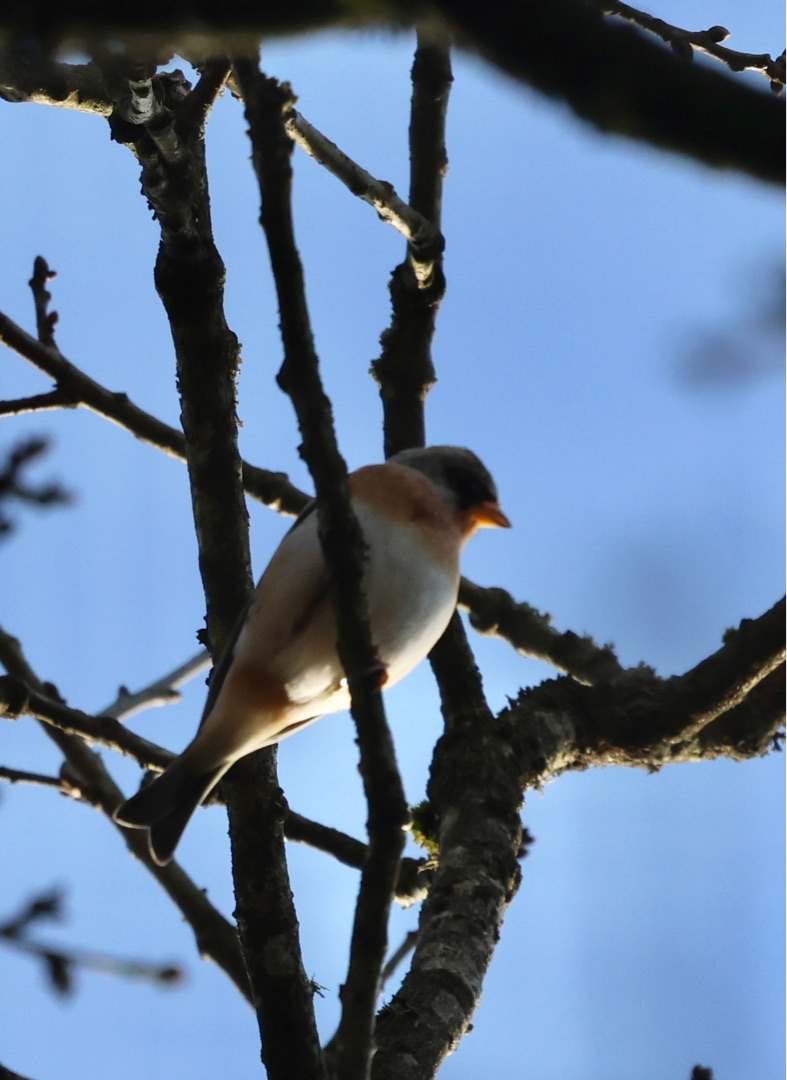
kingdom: Animalia
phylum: Chordata
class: Aves
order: Passeriformes
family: Fringillidae
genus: Fringilla
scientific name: Fringilla montifringilla
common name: Kvækerfinke
